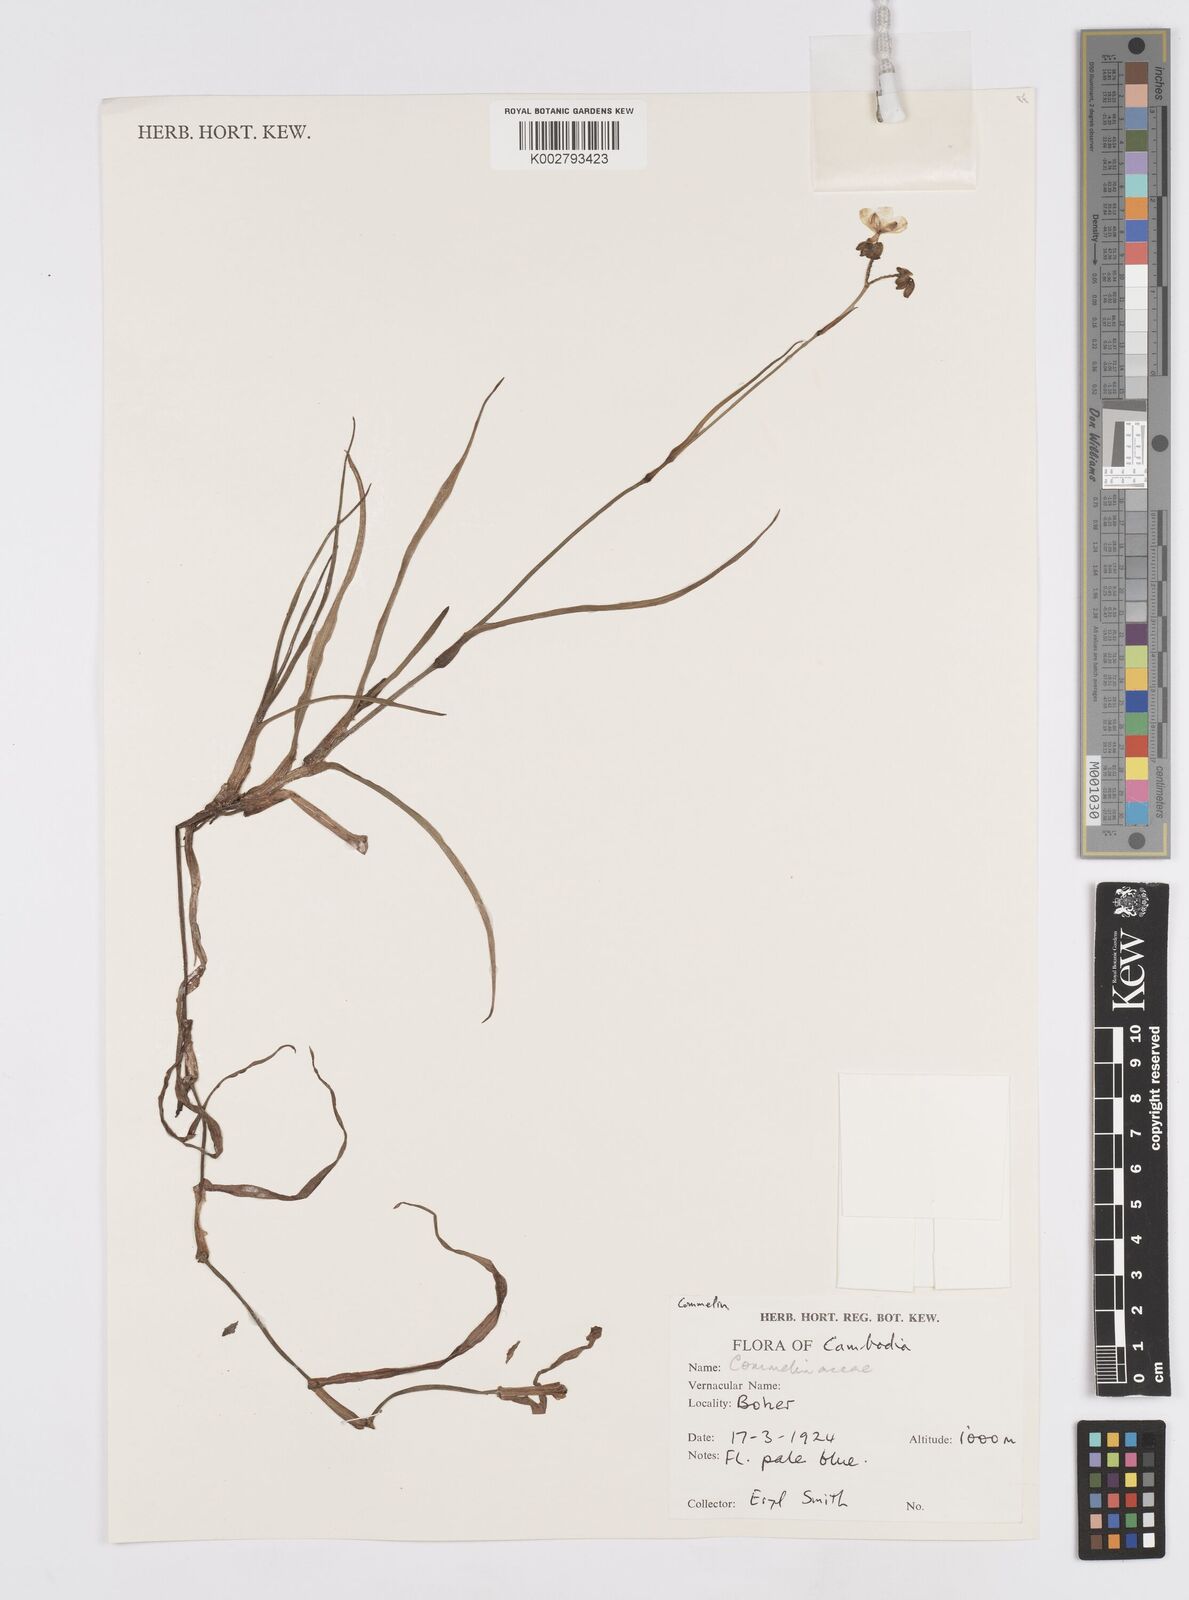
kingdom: Plantae
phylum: Tracheophyta
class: Liliopsida
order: Commelinales
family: Commelinaceae
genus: Murdannia
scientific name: Murdannia gigantea
